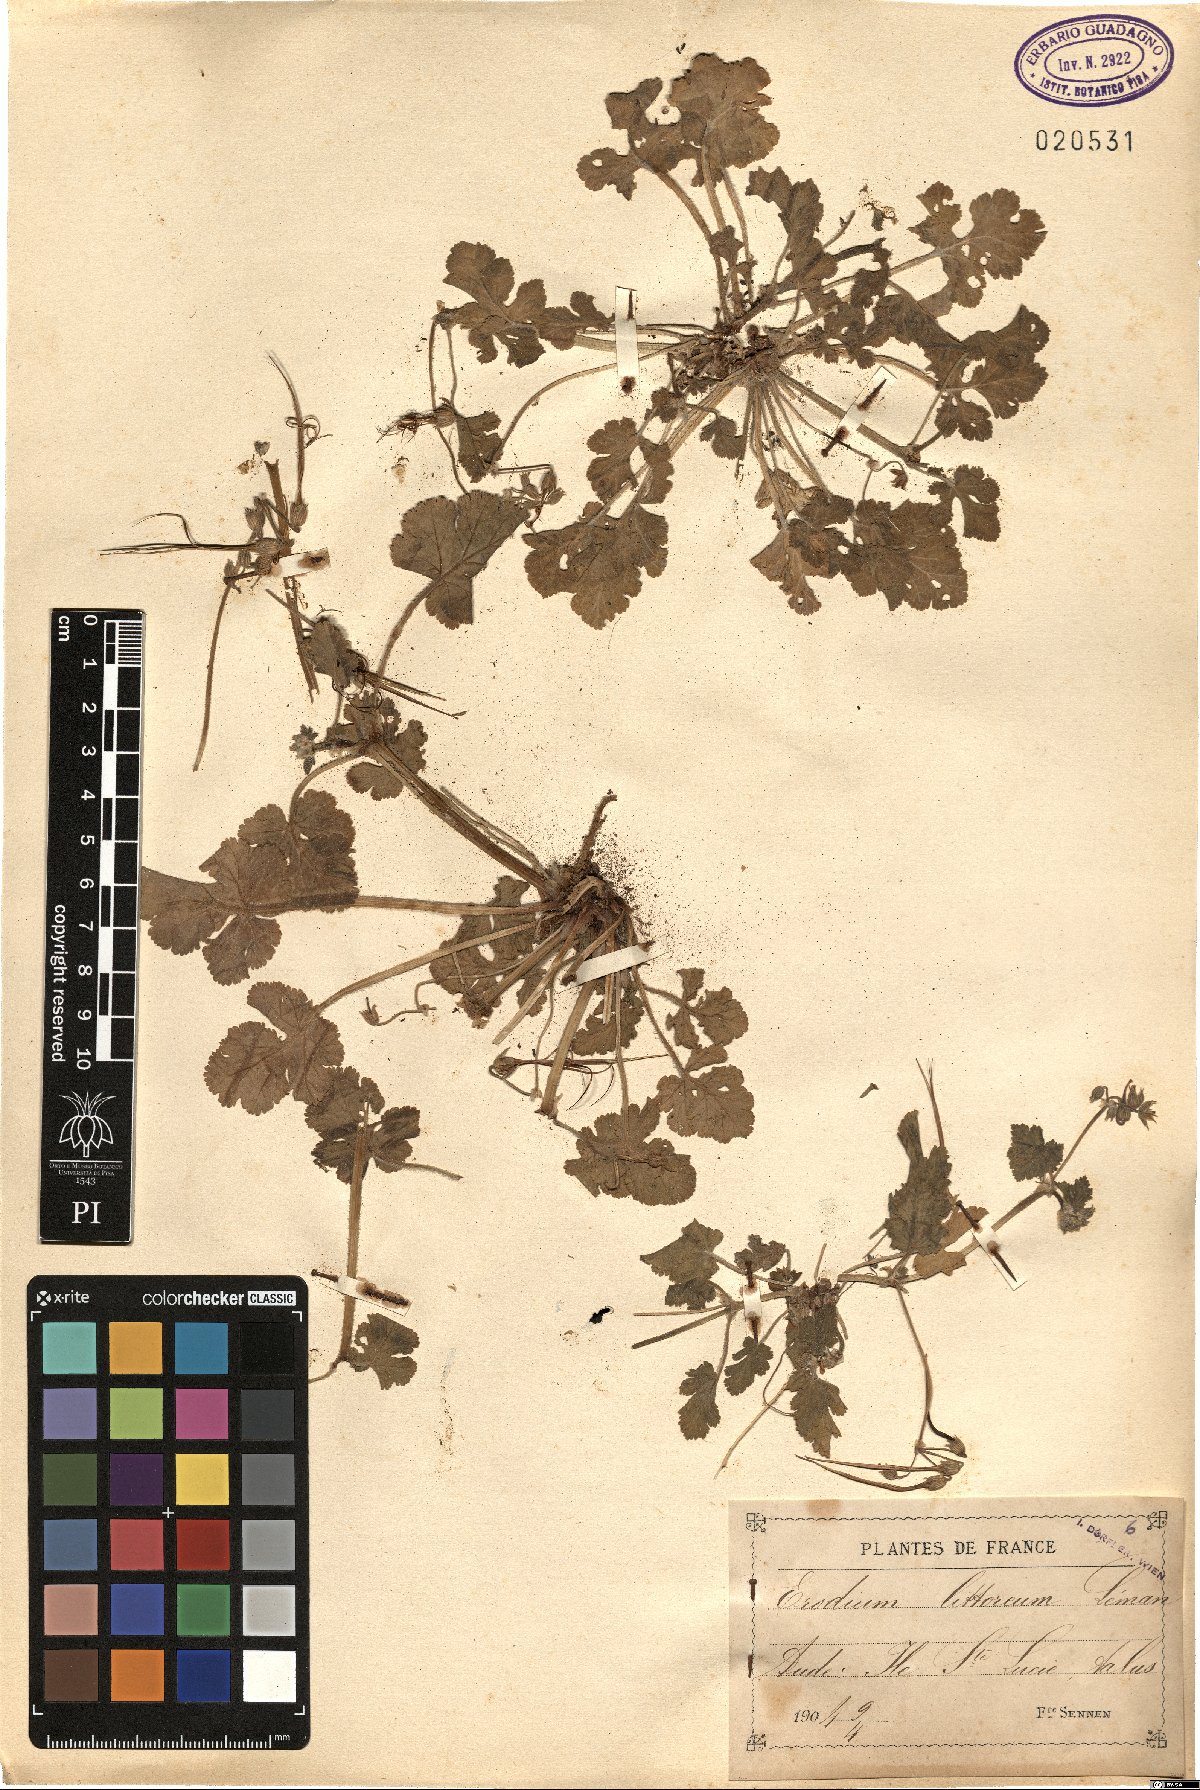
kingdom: Plantae
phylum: Tracheophyta
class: Magnoliopsida
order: Geraniales
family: Geraniaceae
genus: Erodium
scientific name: Erodium chium
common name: Three-lobed stork's-bill
